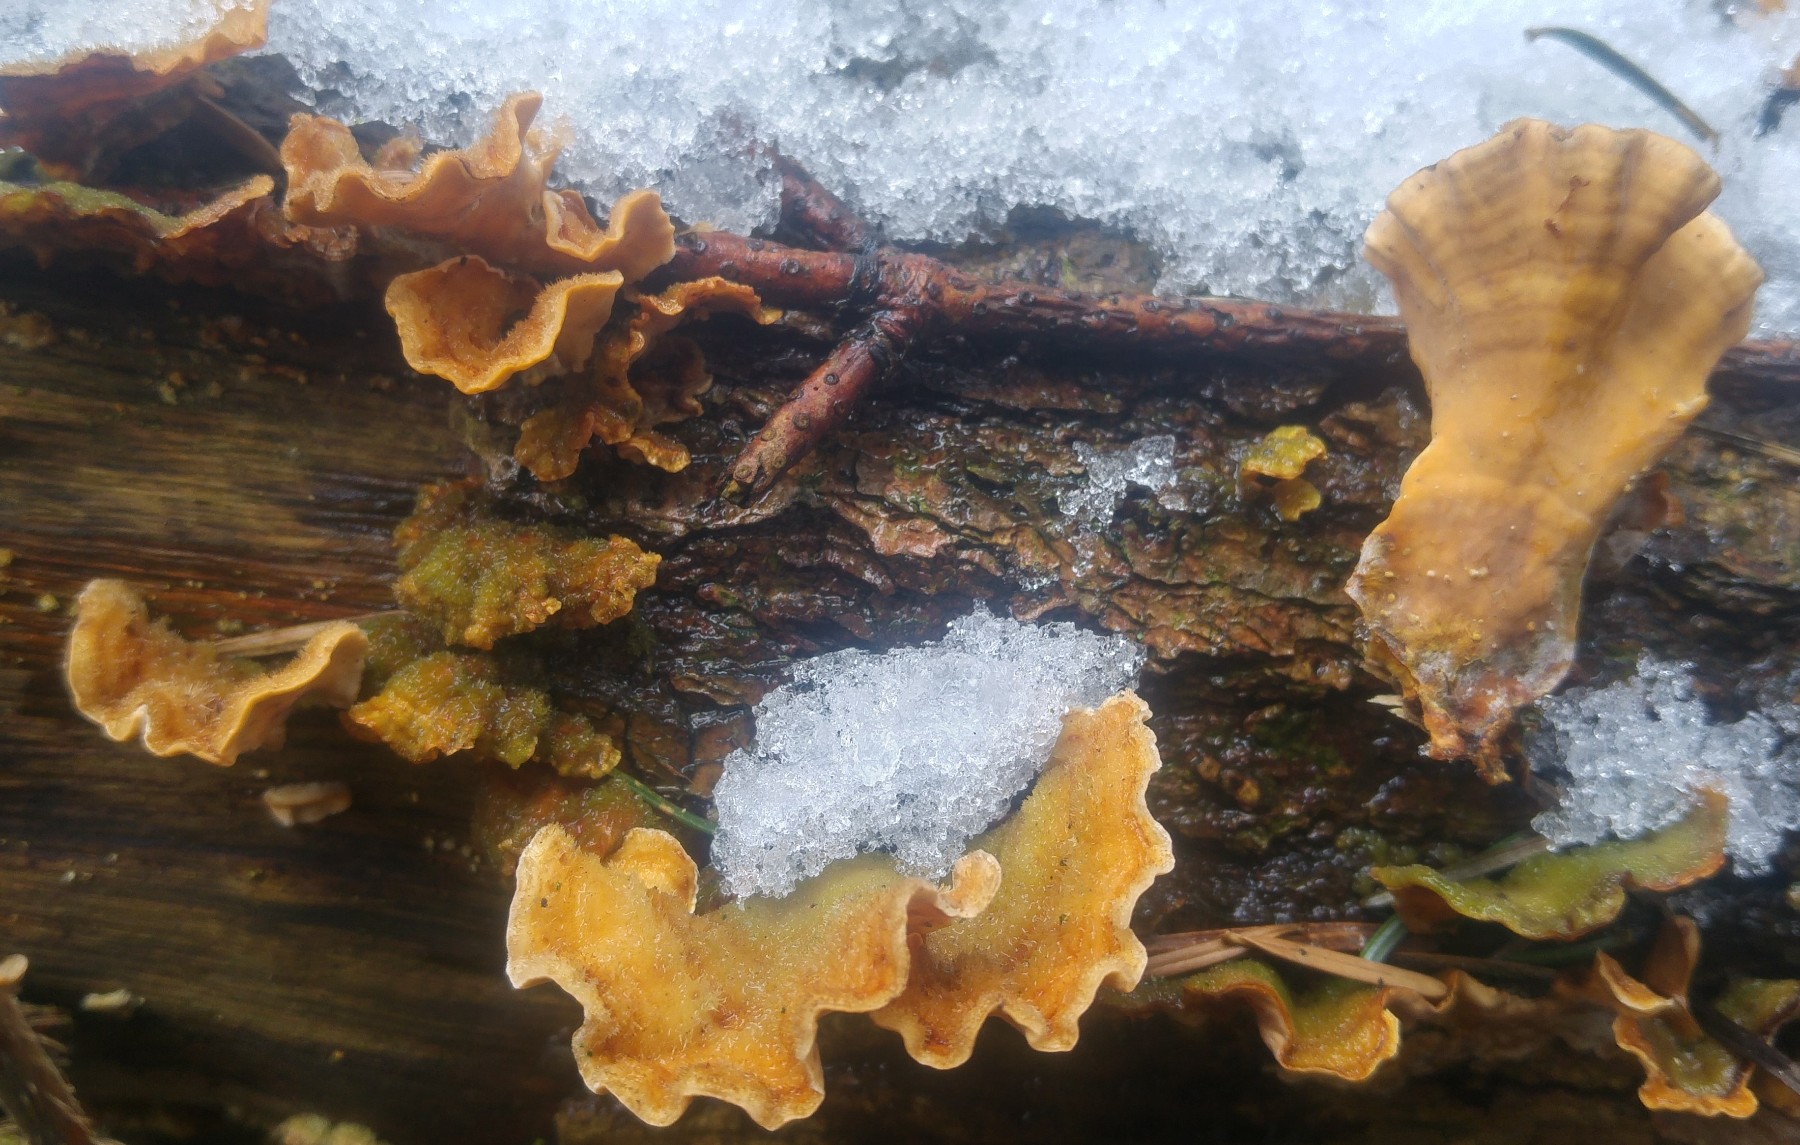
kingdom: Fungi
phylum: Basidiomycota
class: Agaricomycetes
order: Russulales
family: Stereaceae
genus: Stereum
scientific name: Stereum hirsutum
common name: håret lædersvamp
